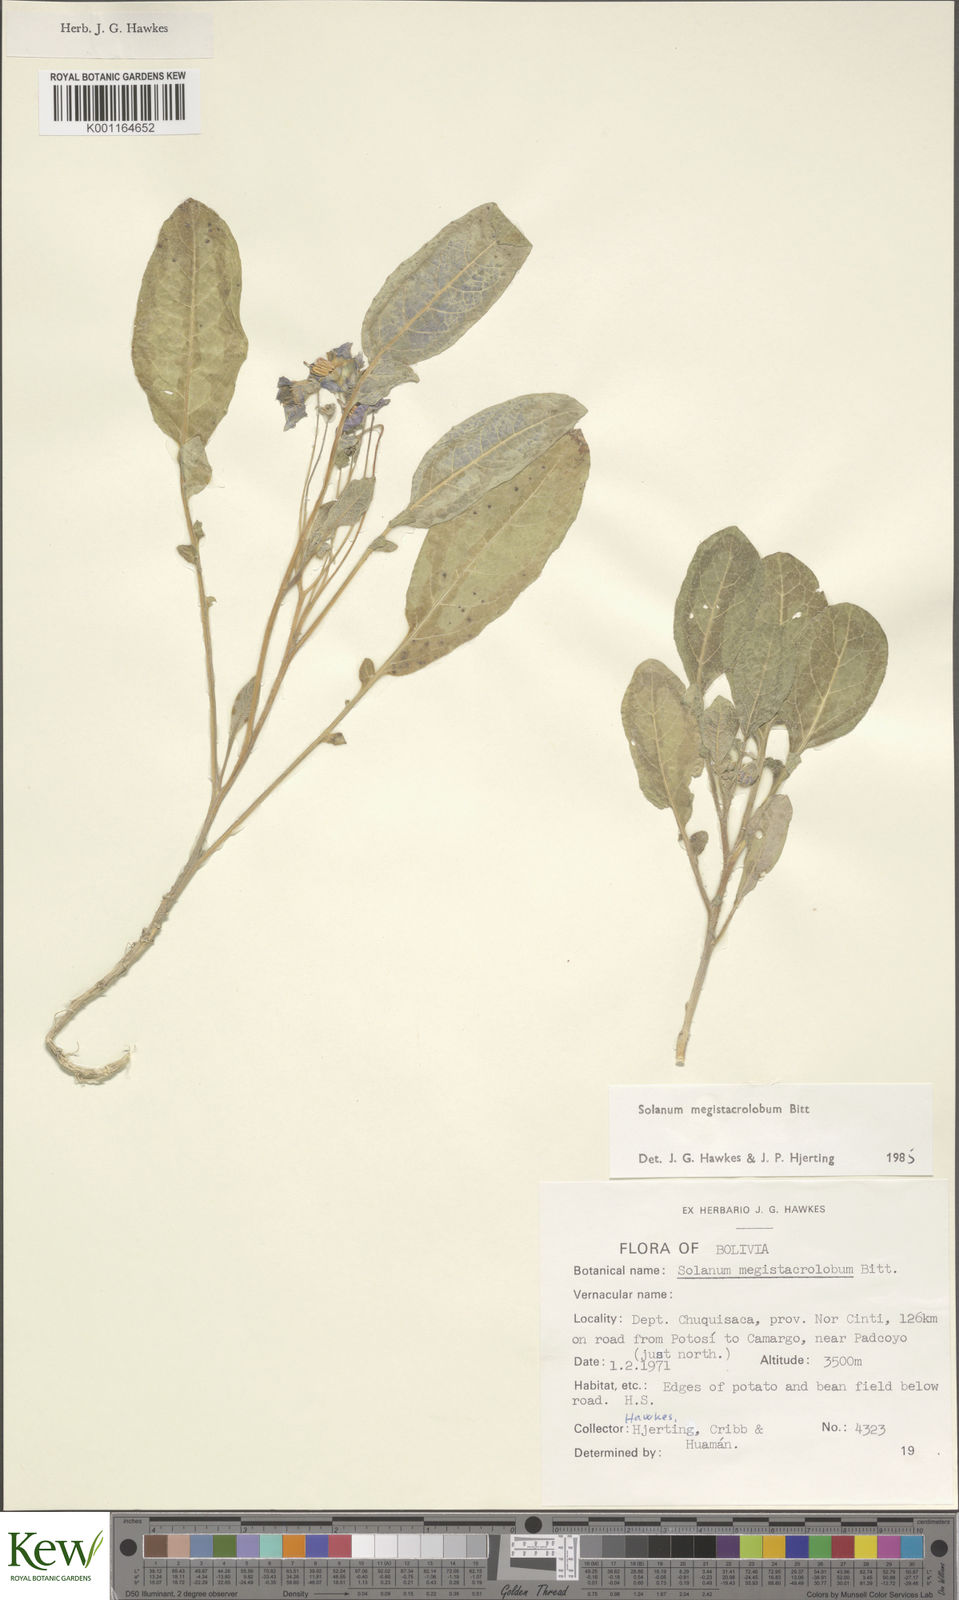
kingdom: Plantae
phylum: Tracheophyta
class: Magnoliopsida
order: Solanales
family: Solanaceae
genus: Solanum
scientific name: Solanum boliviense
